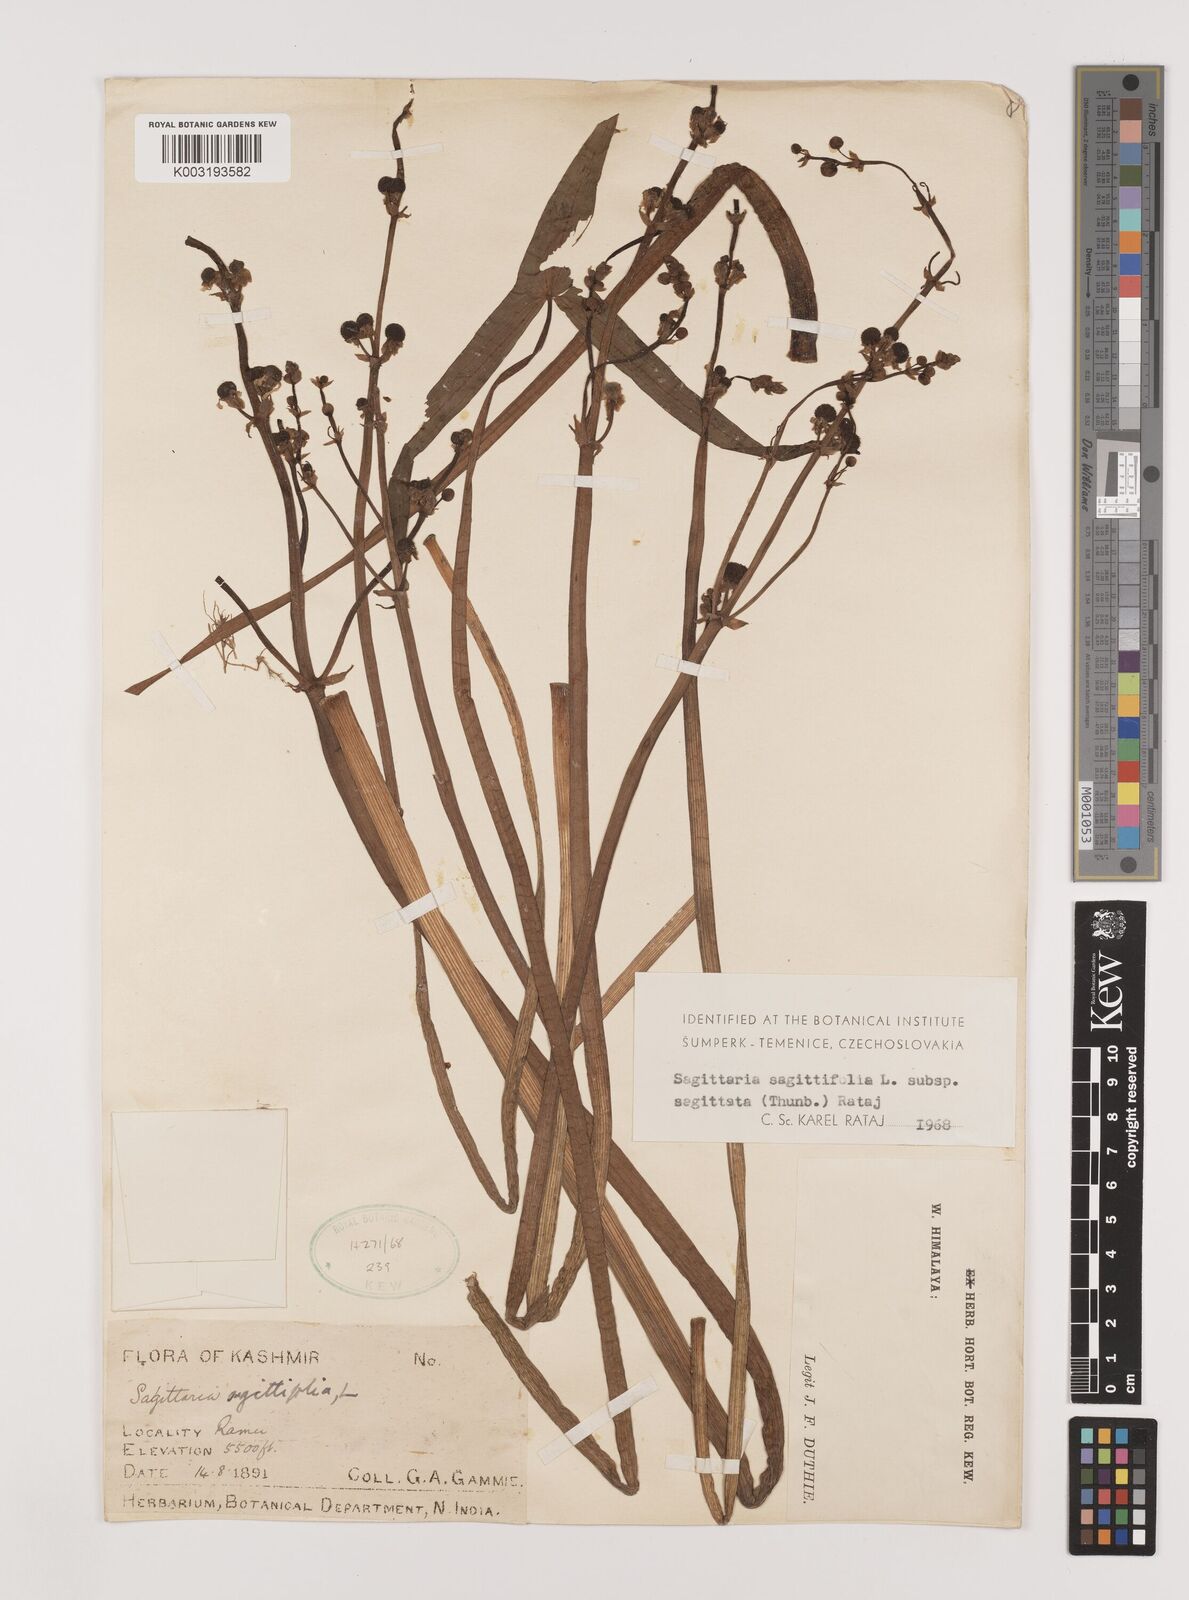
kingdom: Plantae
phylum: Tracheophyta
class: Liliopsida
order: Alismatales
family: Alismataceae
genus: Sagittaria
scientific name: Sagittaria sagittifolia
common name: Arrowhead
